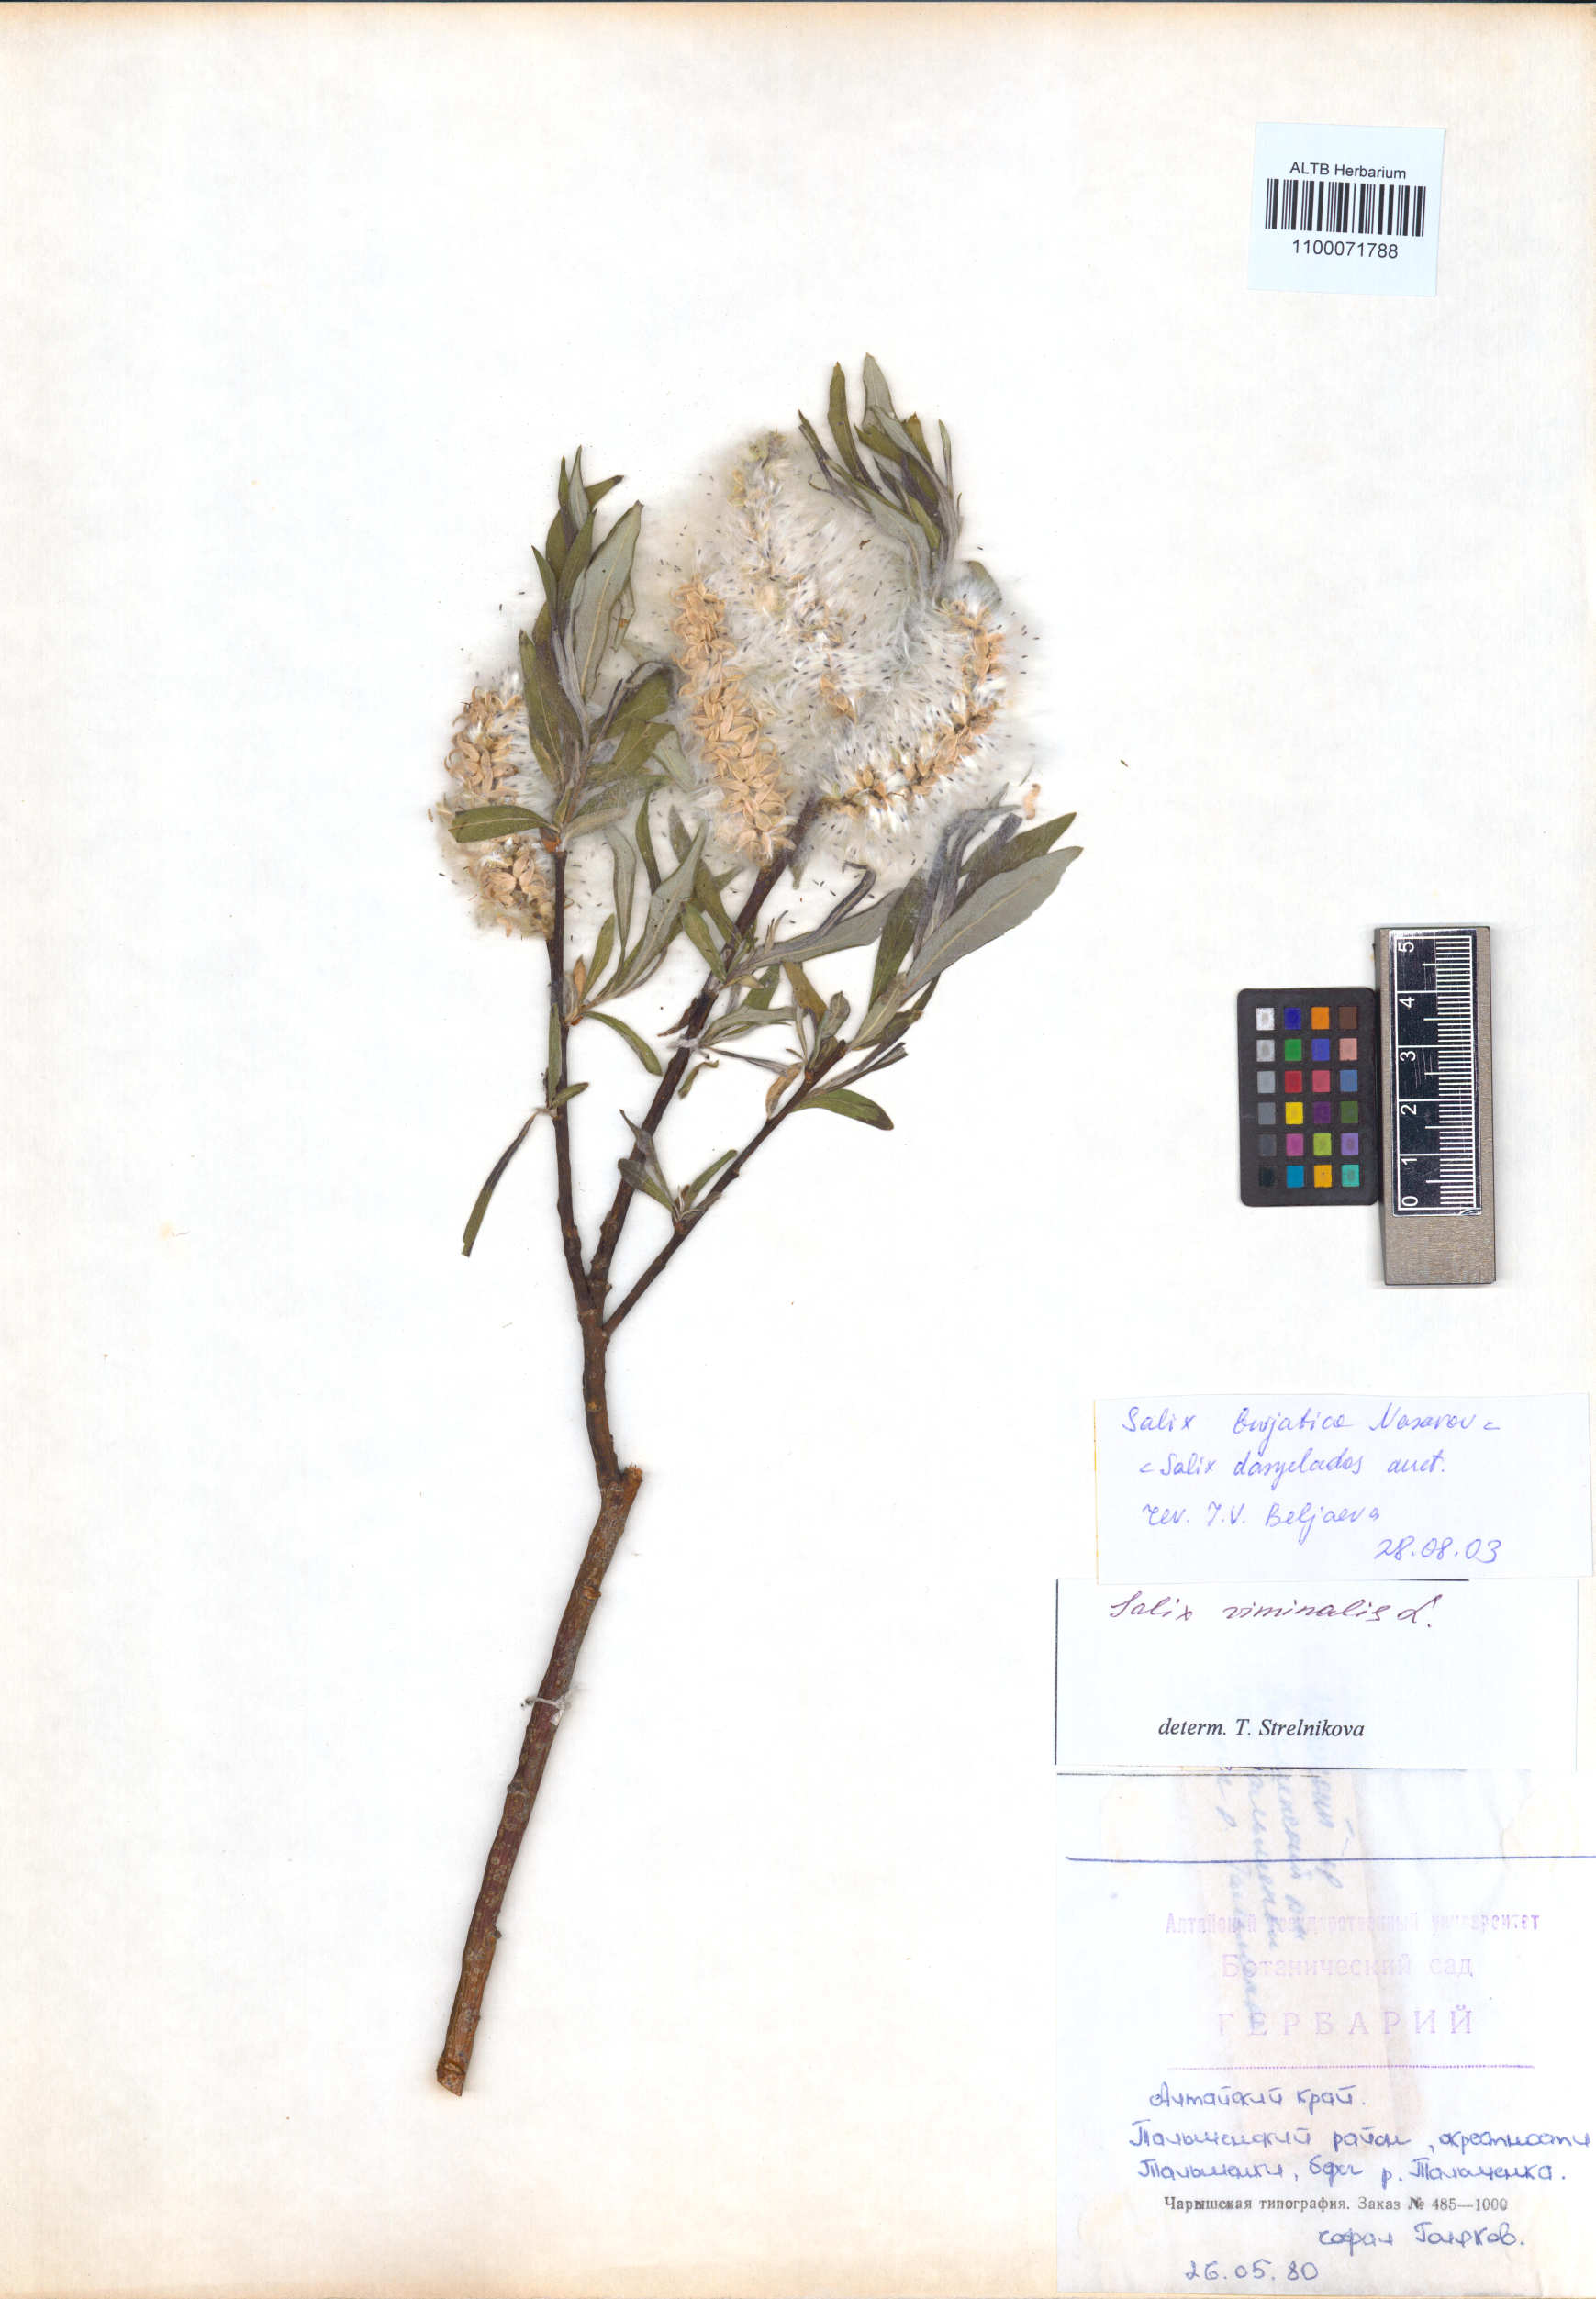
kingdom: Plantae
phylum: Tracheophyta
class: Magnoliopsida
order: Malpighiales
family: Salicaceae
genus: Salix
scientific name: Salix gmelinii
